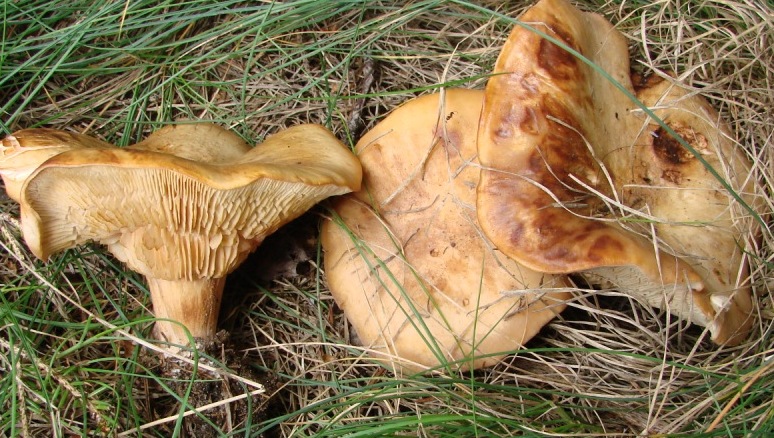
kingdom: Fungi
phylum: Basidiomycota
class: Agaricomycetes
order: Agaricales
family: Entolomataceae
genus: Clitopilus
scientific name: Clitopilus geminus
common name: kødfarvet troldhat
